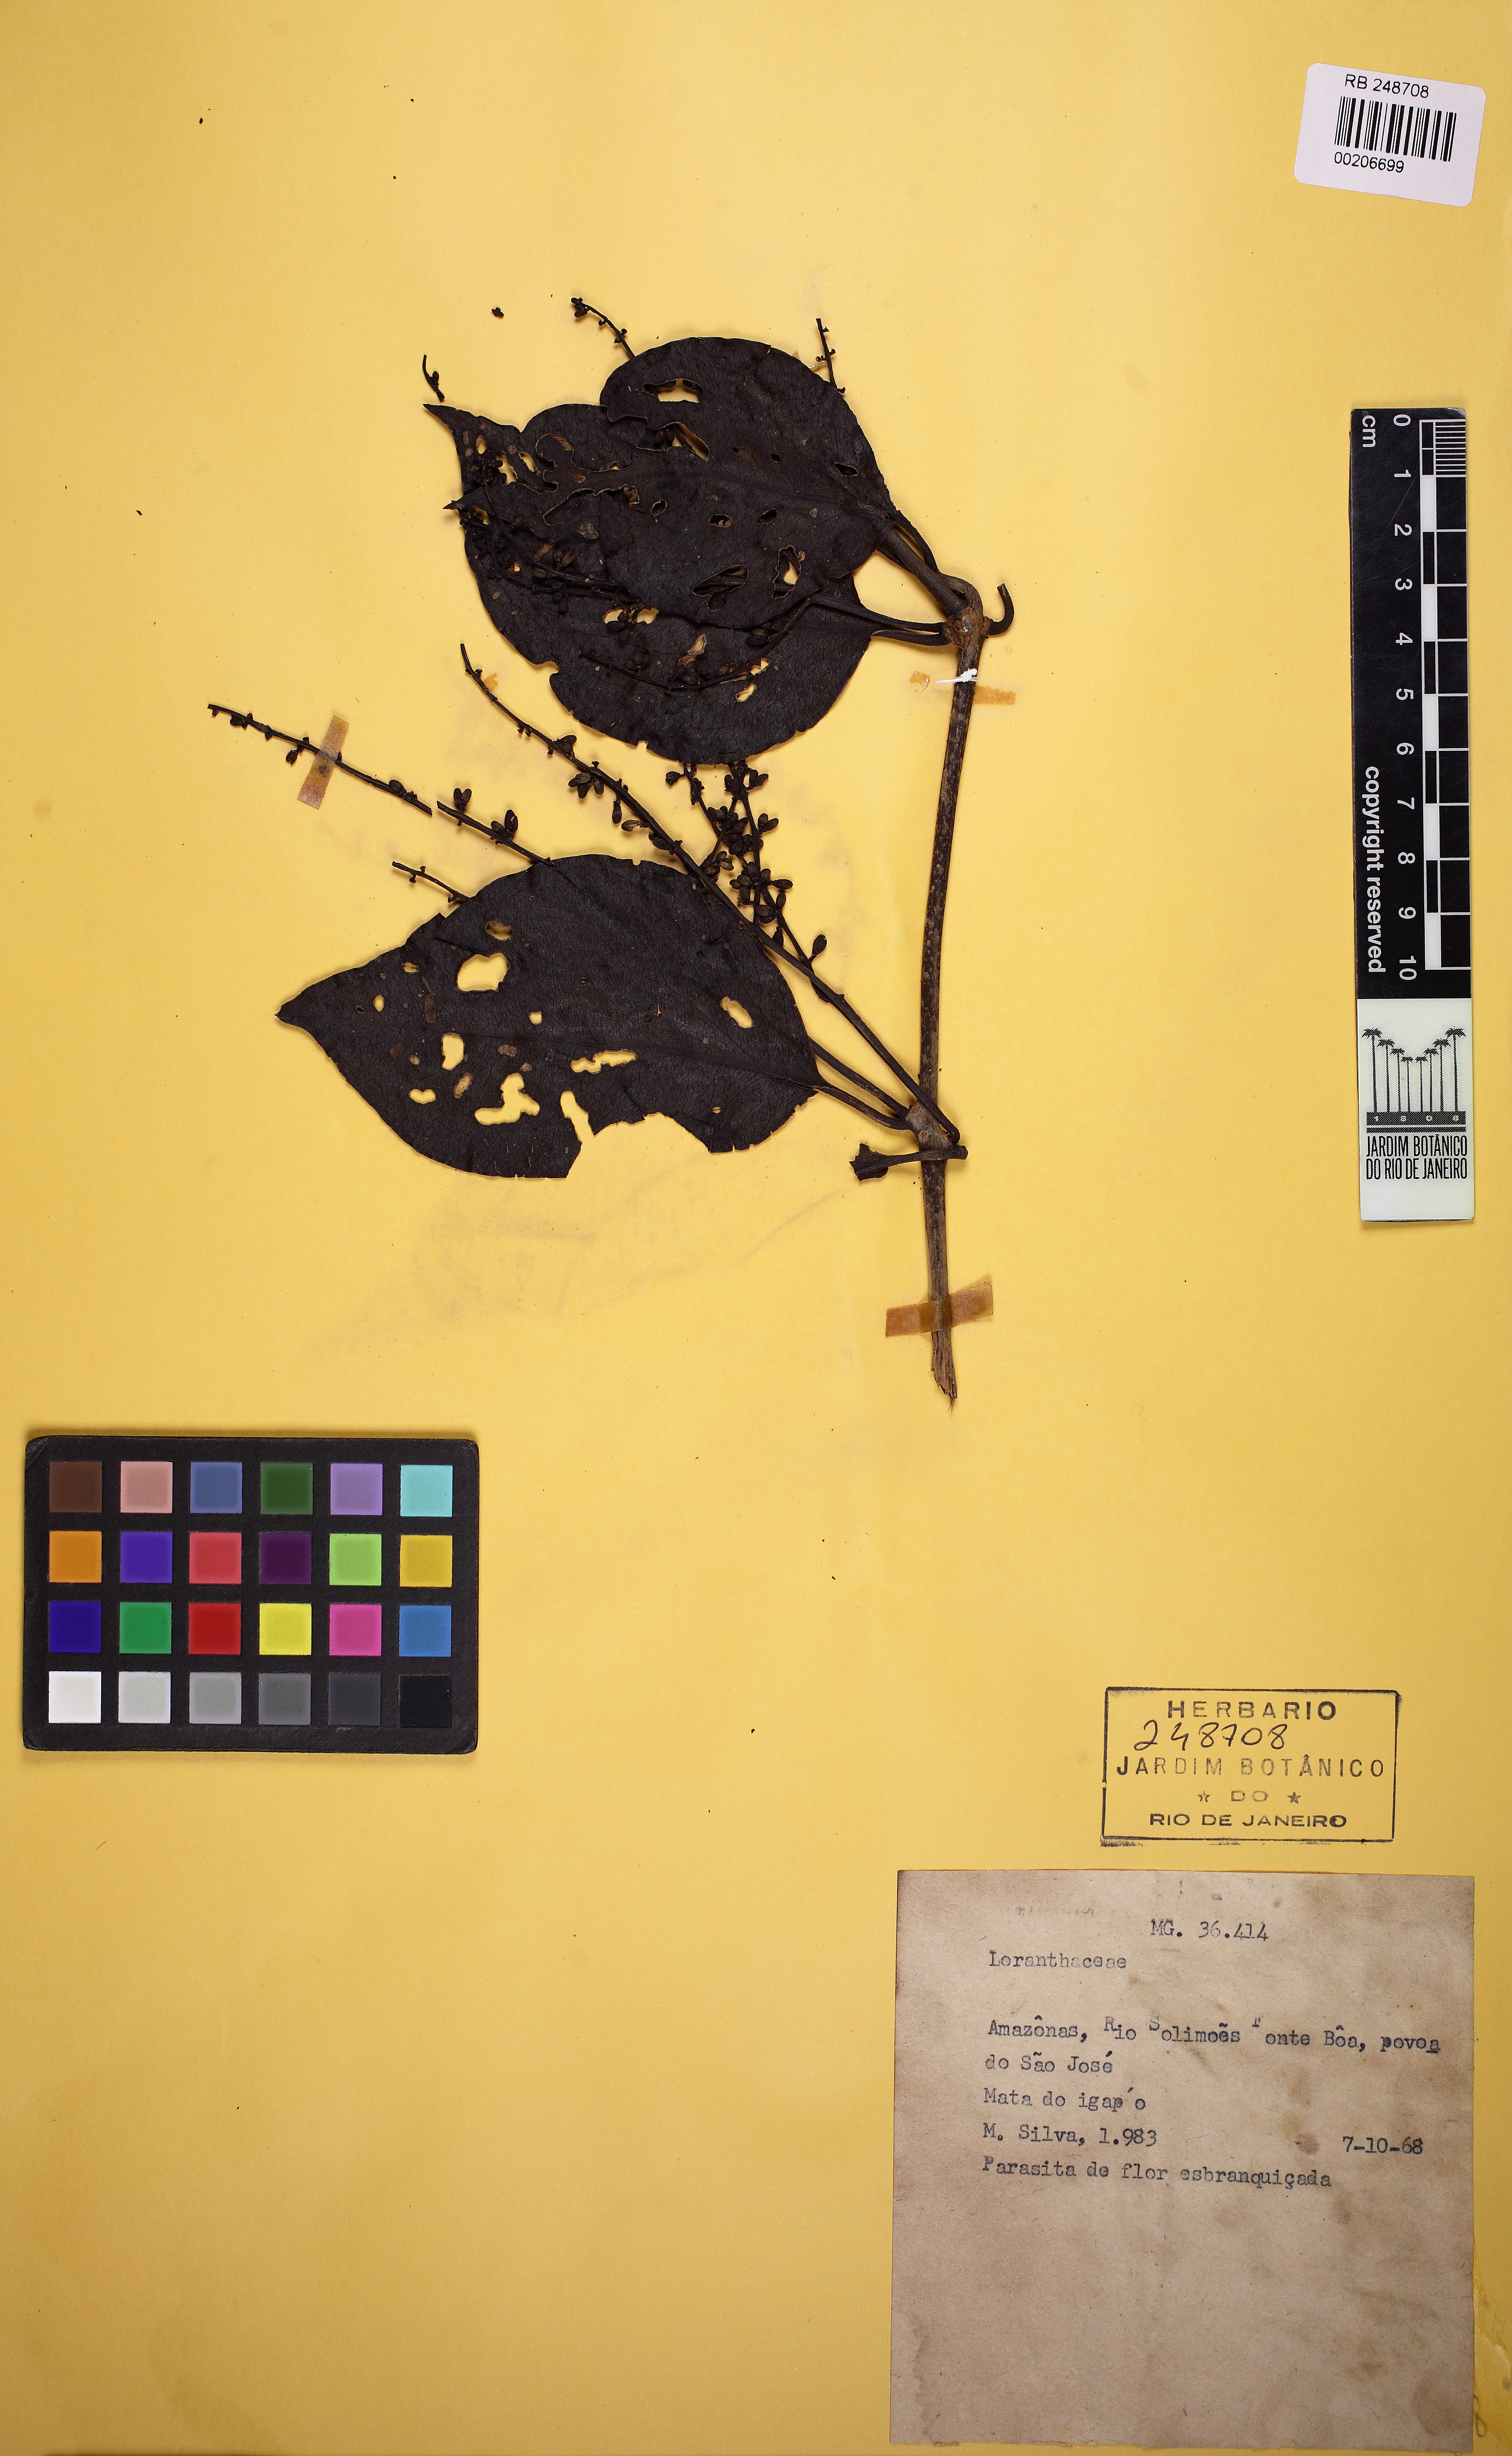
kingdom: Plantae
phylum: Tracheophyta
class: Magnoliopsida
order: Santalales
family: Loranthaceae
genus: Passovia
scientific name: Passovia pedunculata
